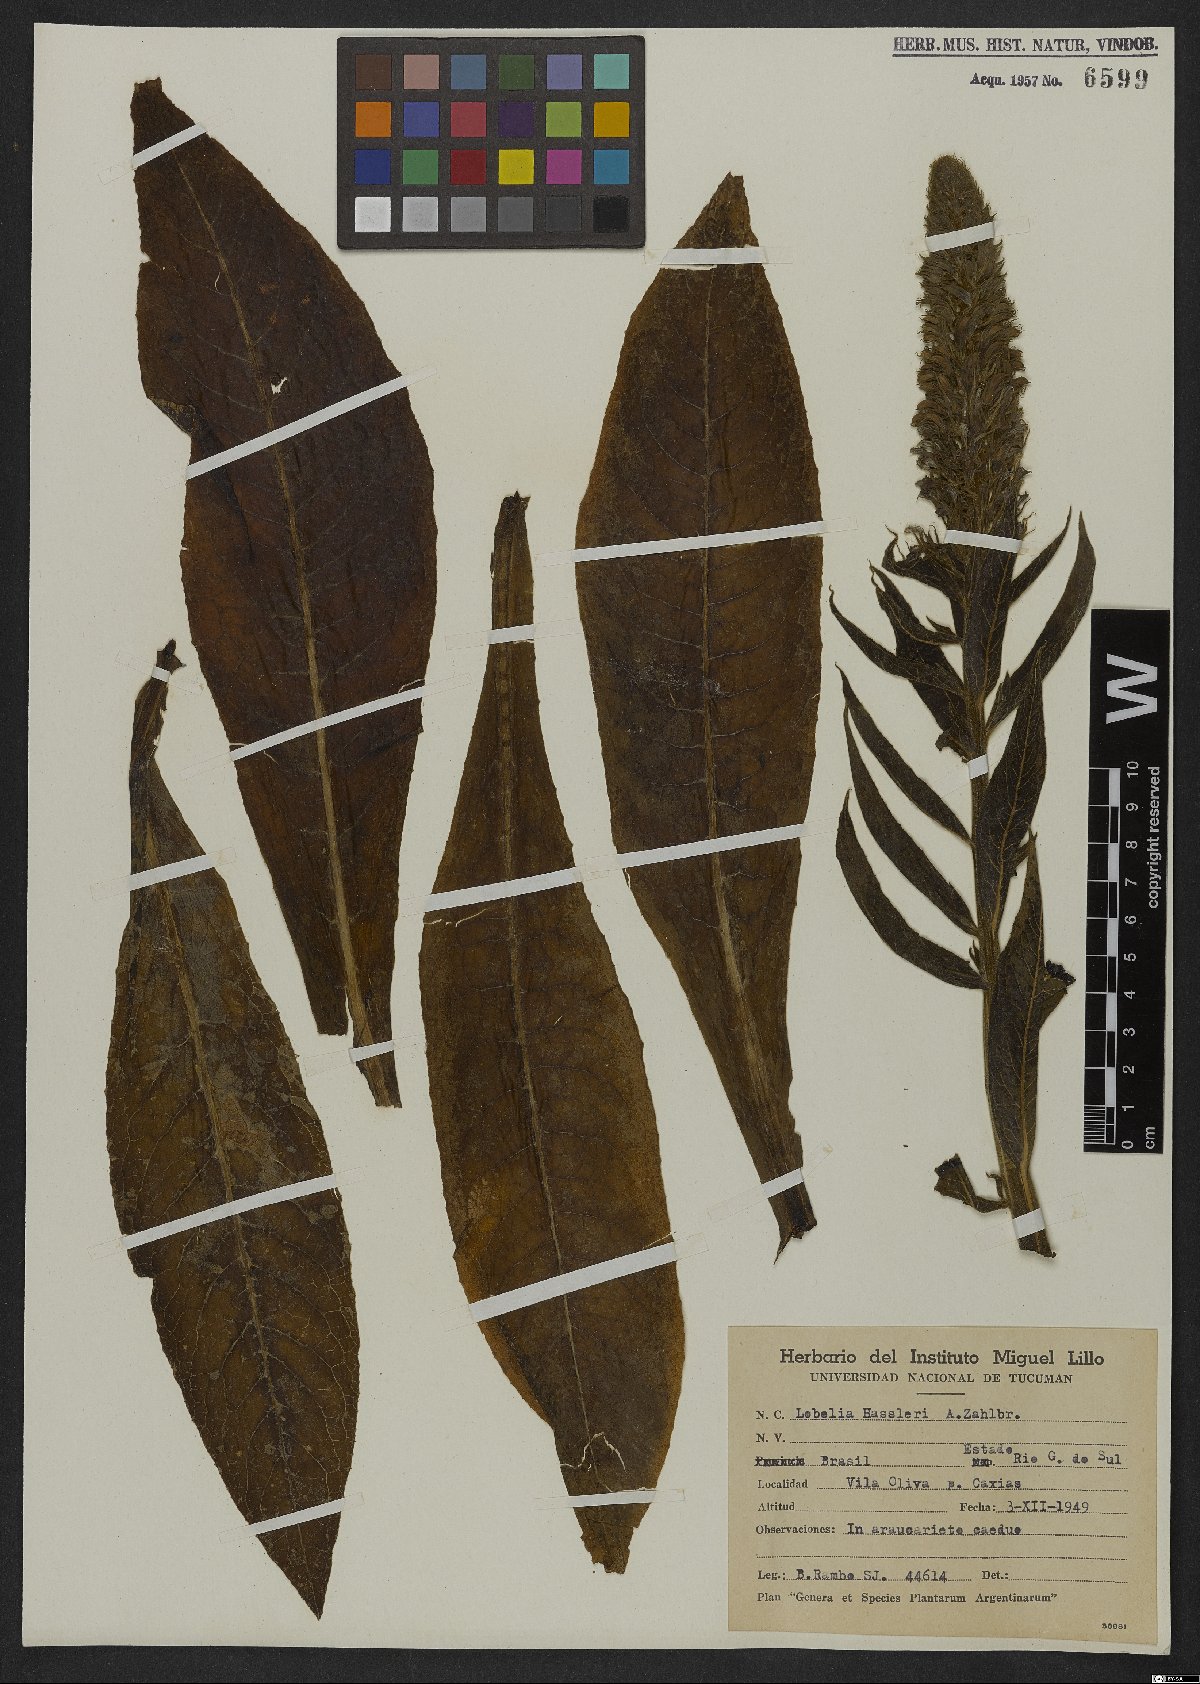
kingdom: Plantae
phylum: Tracheophyta
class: Magnoliopsida
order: Asterales
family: Campanulaceae
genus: Lobelia
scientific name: Lobelia hassleri
